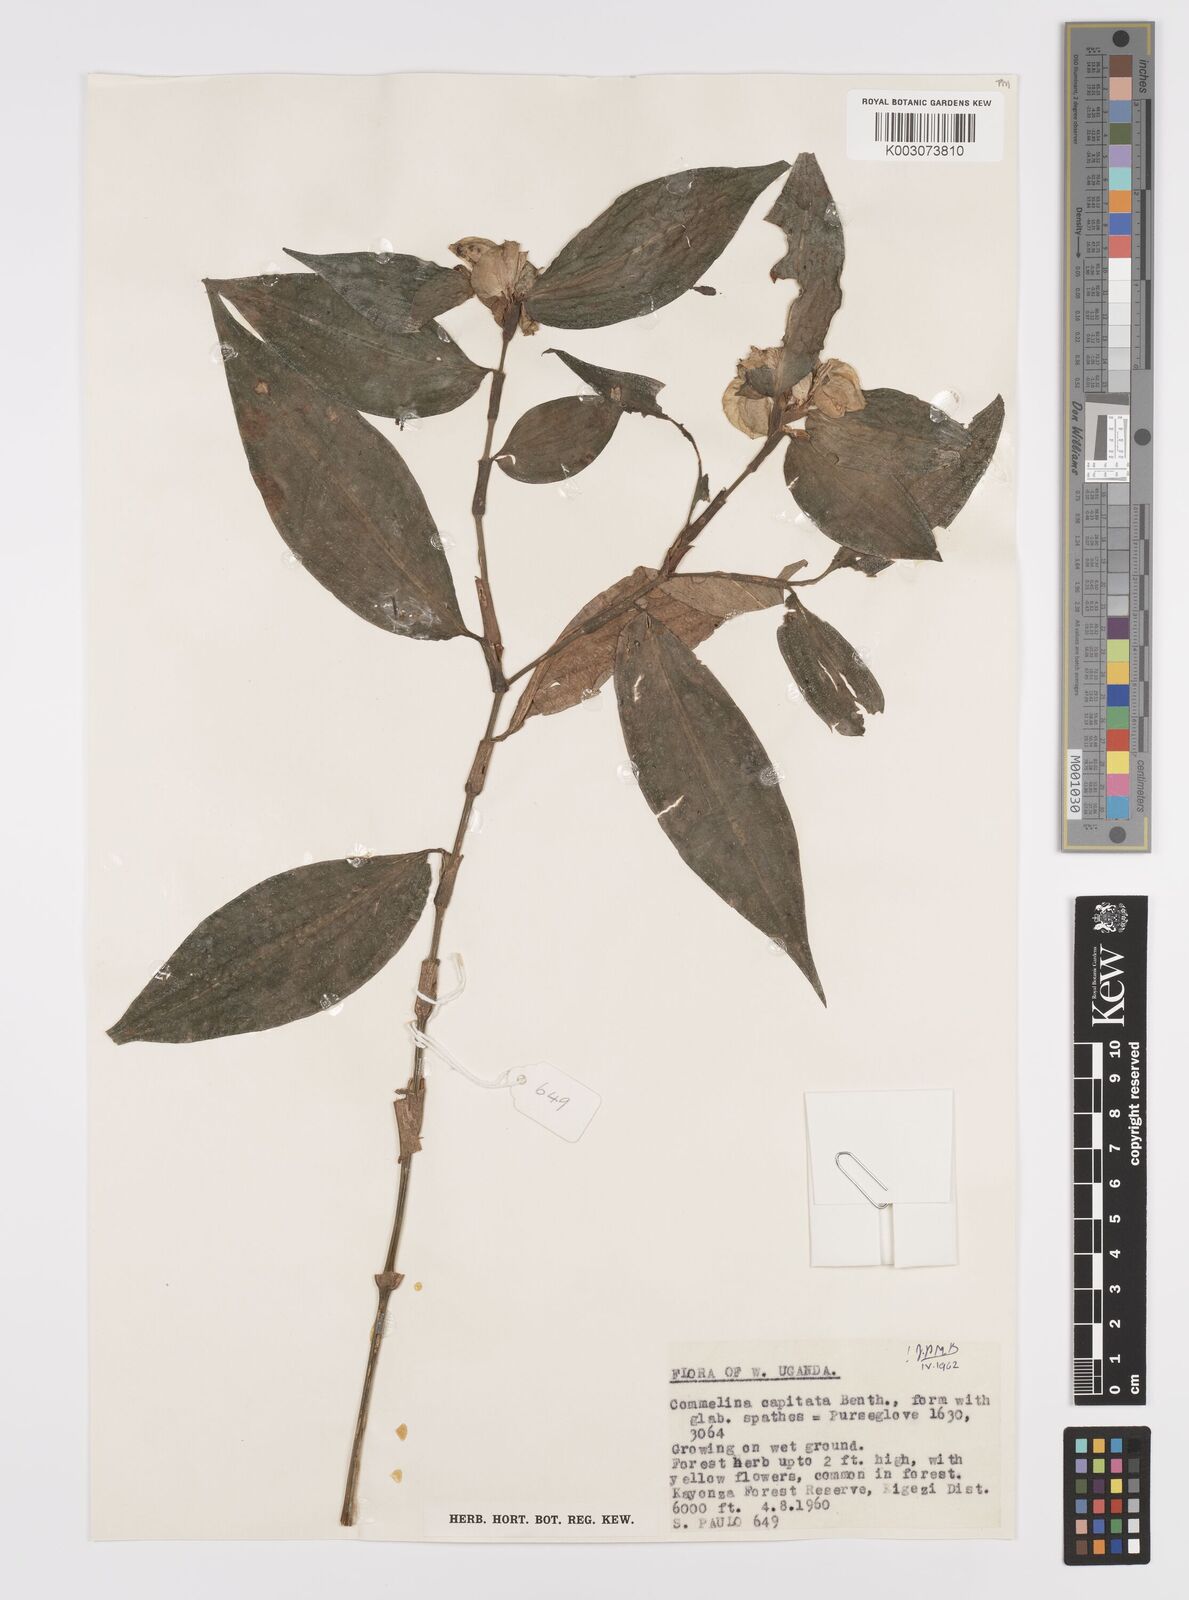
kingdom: Plantae
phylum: Tracheophyta
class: Liliopsida
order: Commelinales
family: Commelinaceae
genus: Commelina
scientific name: Commelina capitata
